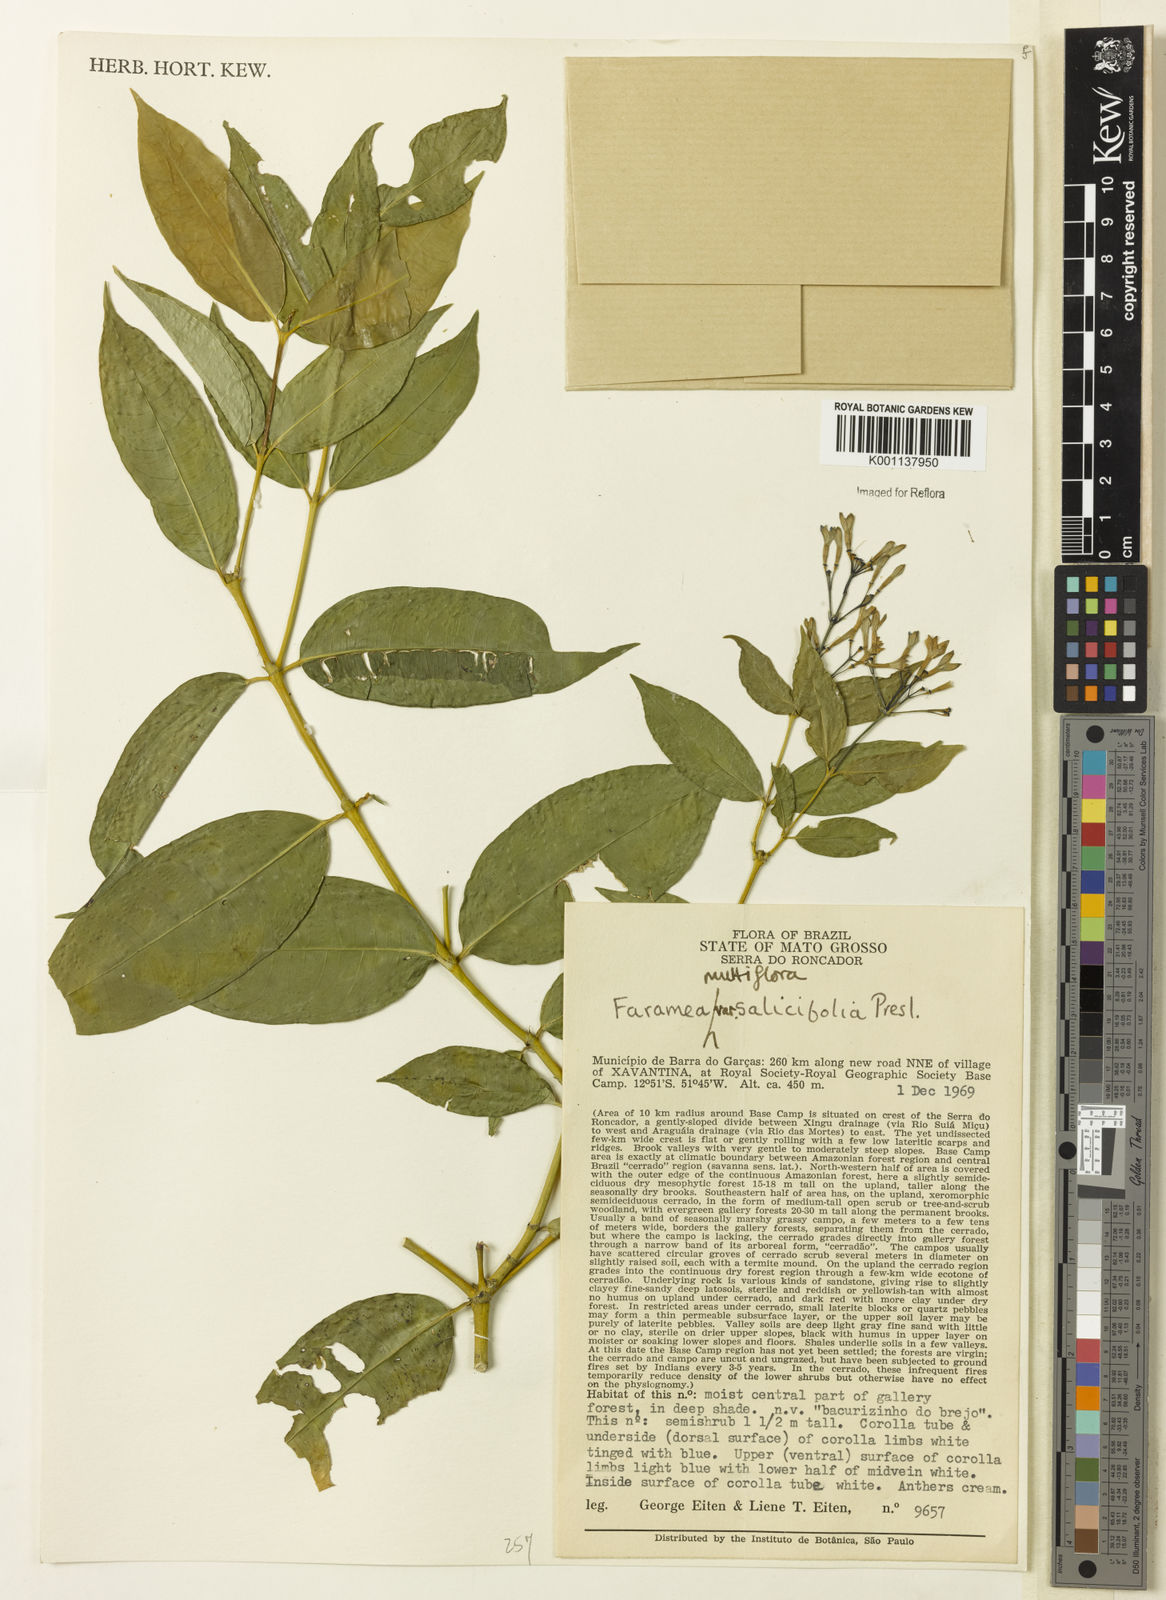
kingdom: Plantae
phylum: Tracheophyta
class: Magnoliopsida
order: Gentianales
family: Rubiaceae
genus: Faramea
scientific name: Faramea multiflora
